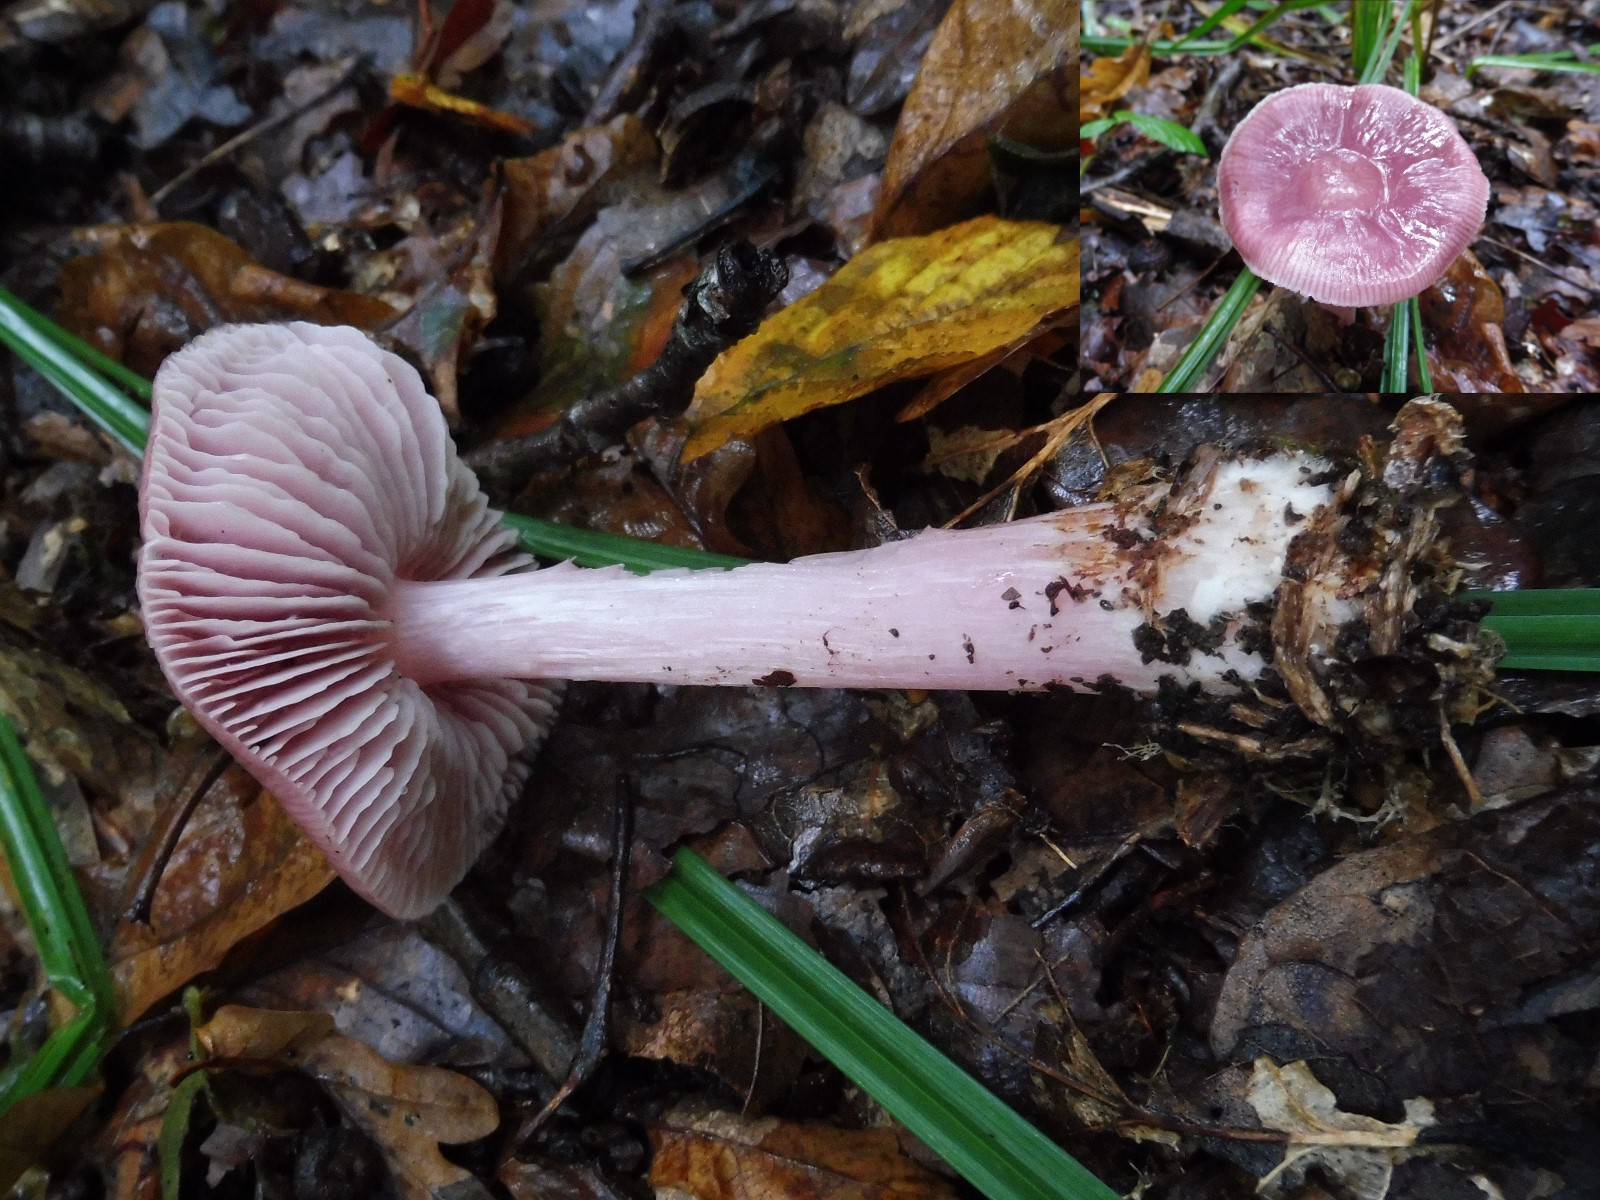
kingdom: Fungi
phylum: Basidiomycota
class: Agaricomycetes
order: Agaricales
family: Mycenaceae
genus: Mycena
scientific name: Mycena rosea
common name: rosa huesvamp
